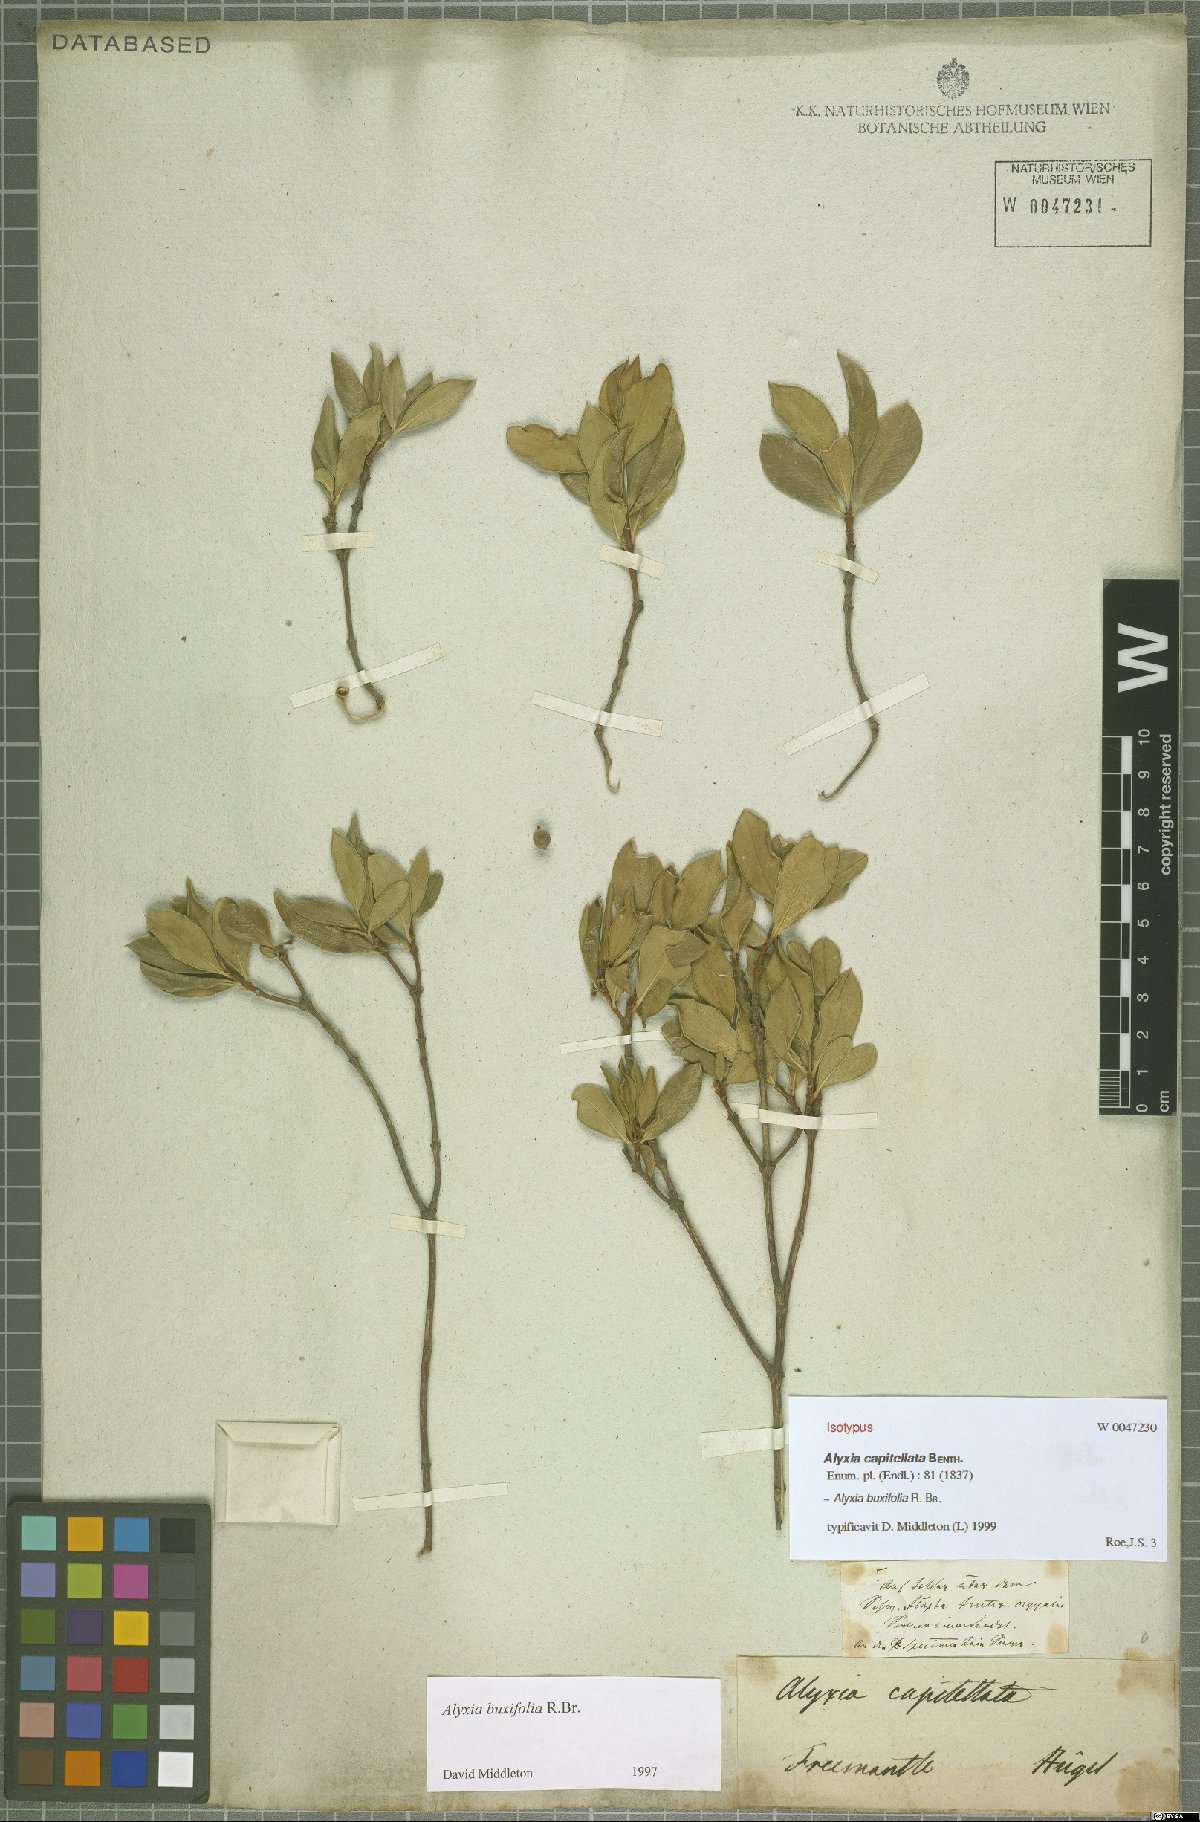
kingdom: Plantae
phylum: Tracheophyta
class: Magnoliopsida
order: Gentianales
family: Apocynaceae
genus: Alyxia
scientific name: Alyxia buxifolia
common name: Dysentery-bush
